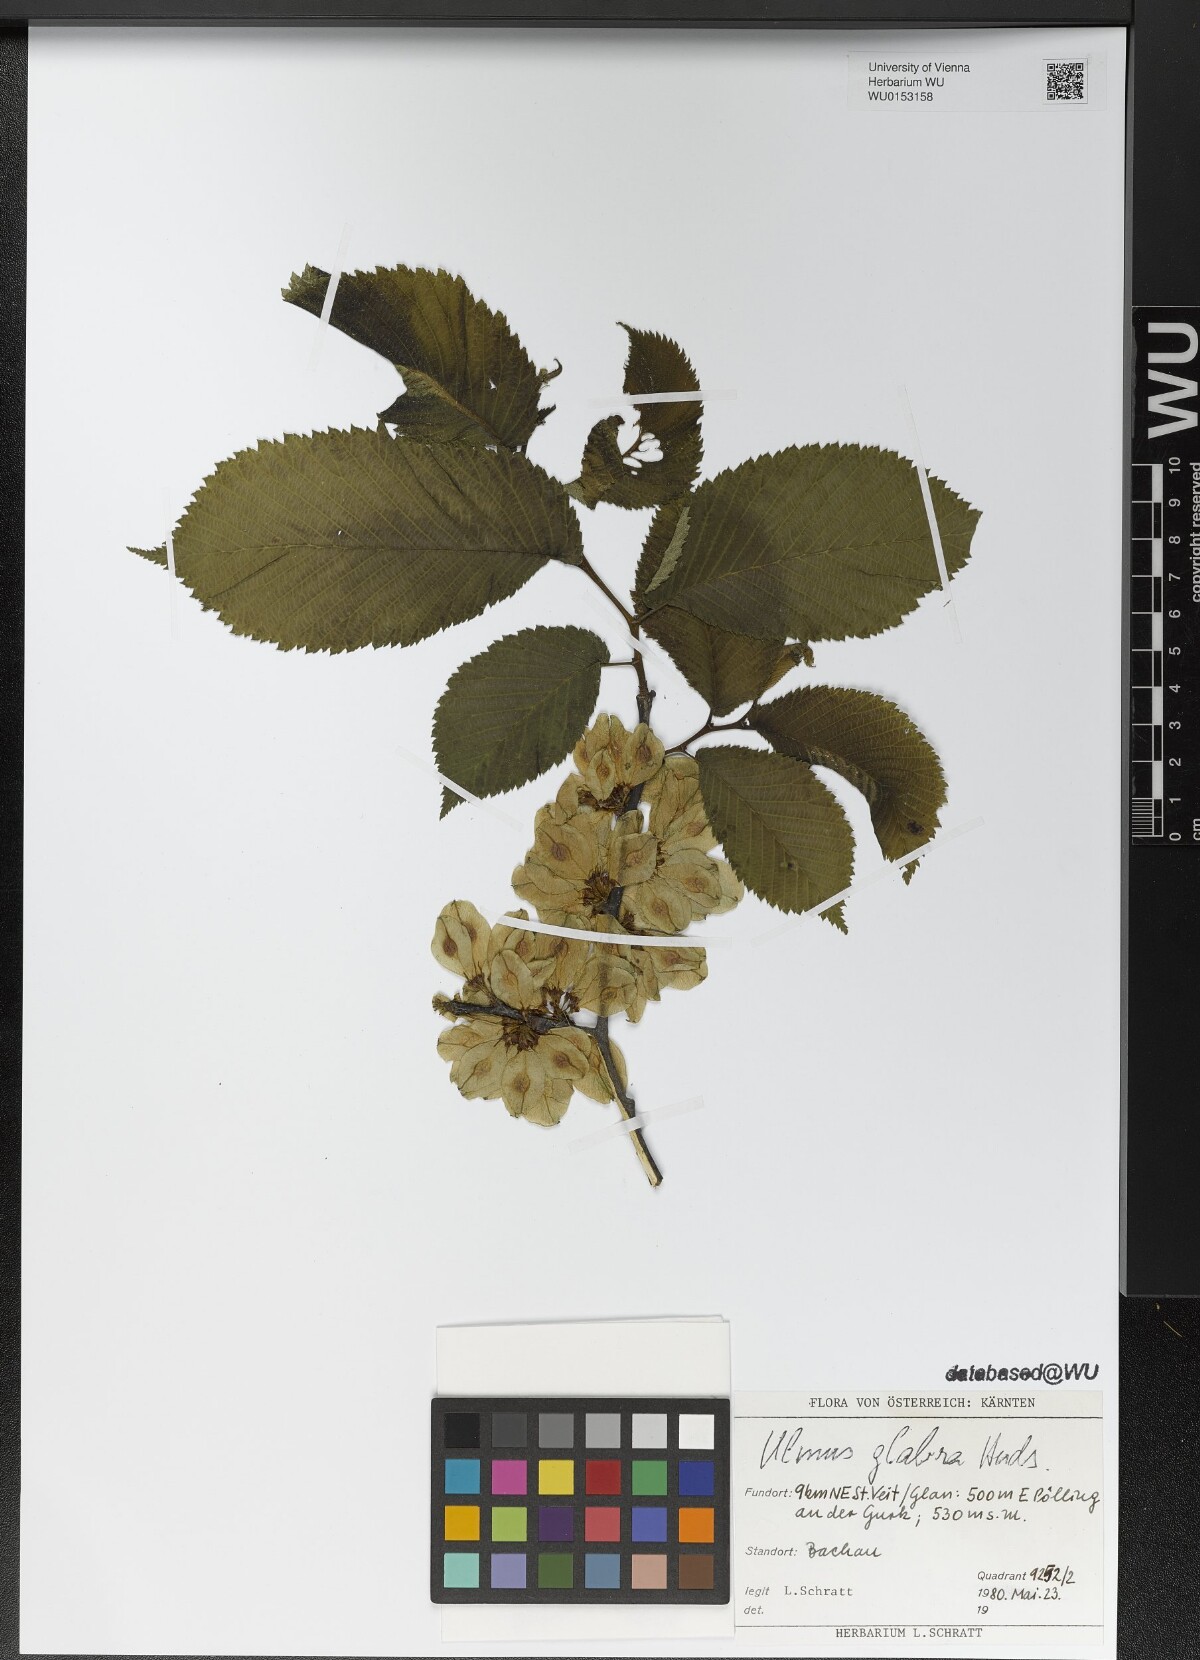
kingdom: Plantae
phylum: Tracheophyta
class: Magnoliopsida
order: Rosales
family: Ulmaceae
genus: Ulmus
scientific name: Ulmus glabra
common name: Wych elm
